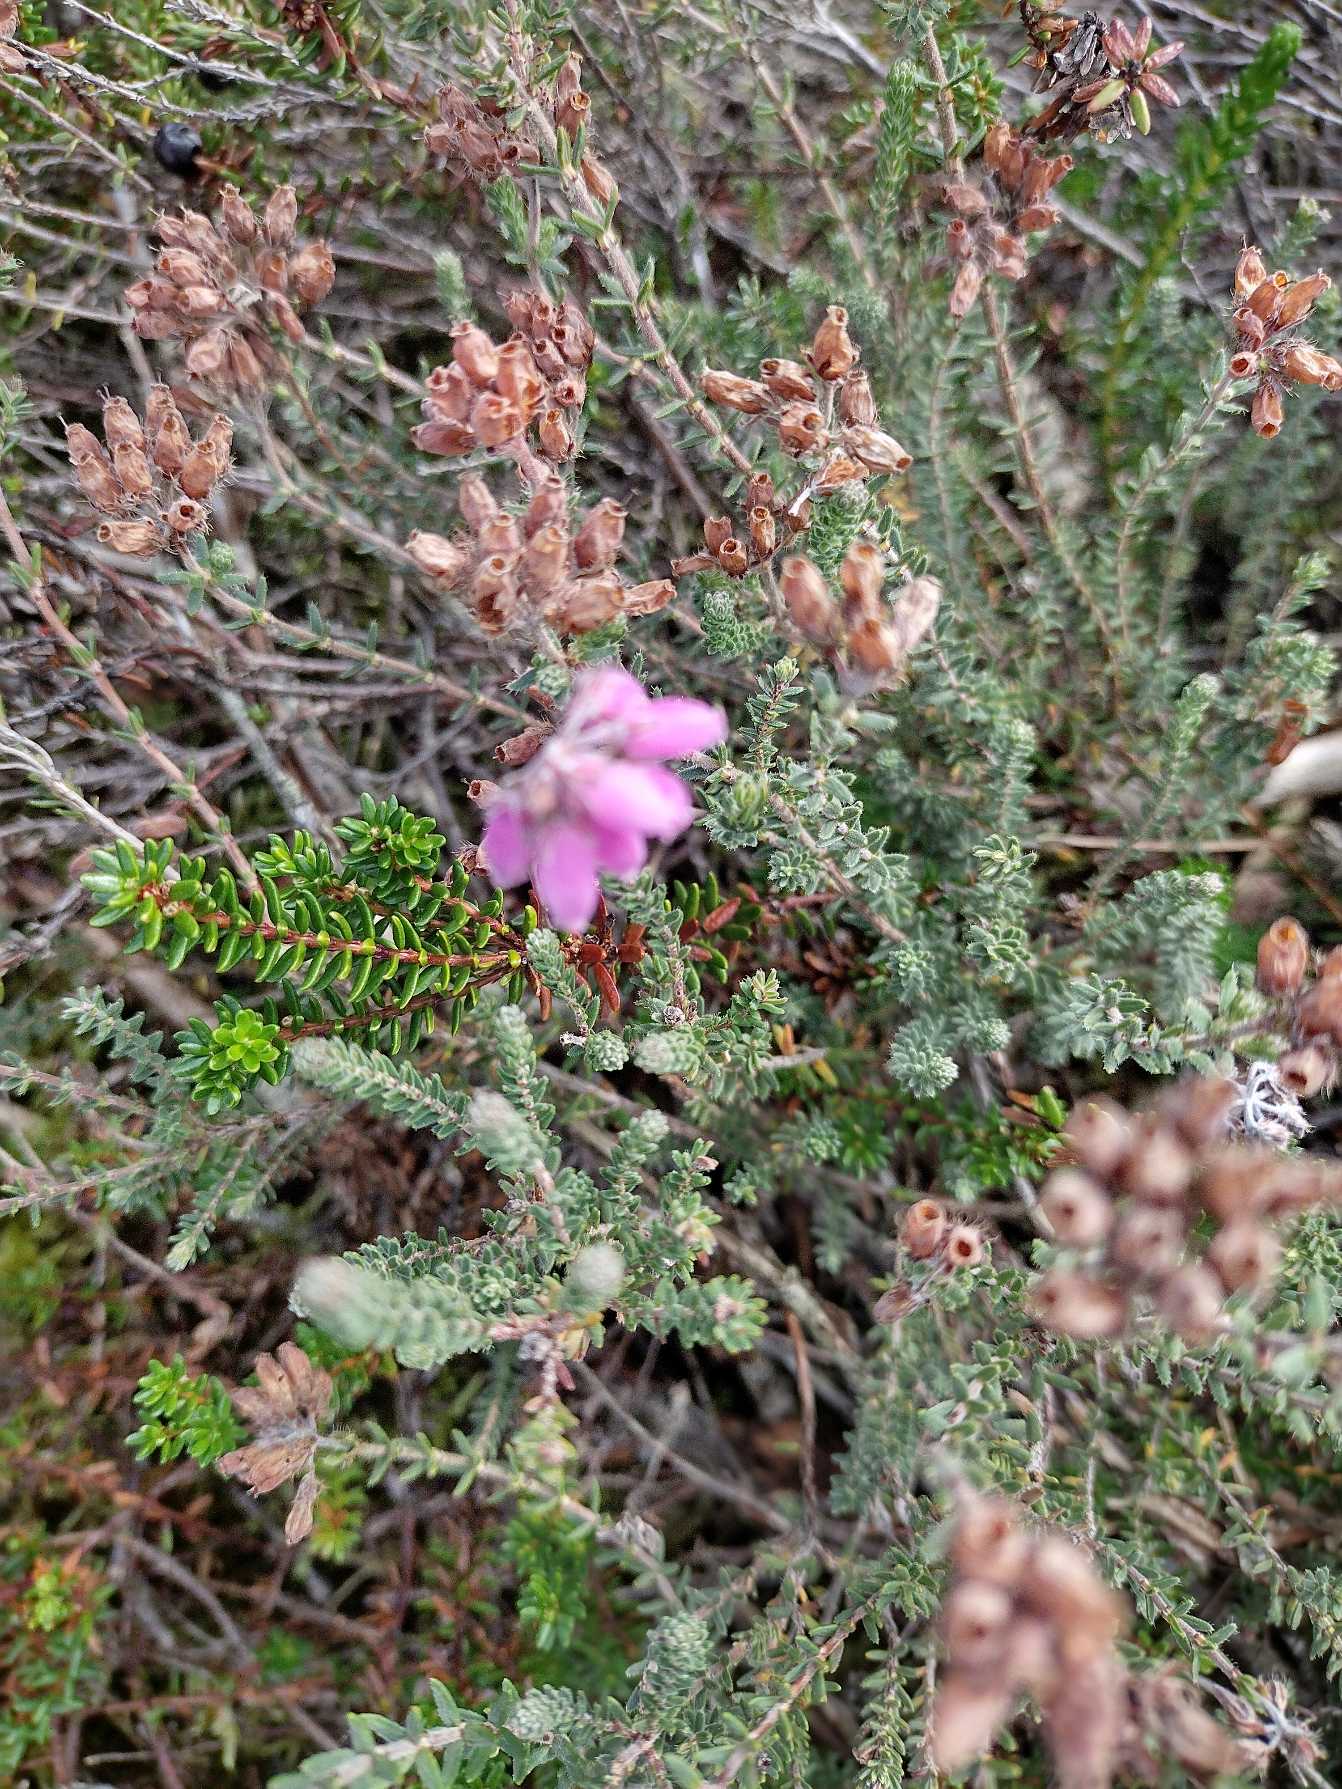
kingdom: Plantae
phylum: Tracheophyta
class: Magnoliopsida
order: Ericales
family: Ericaceae
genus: Erica
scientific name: Erica tetralix
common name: Klokkelyng
